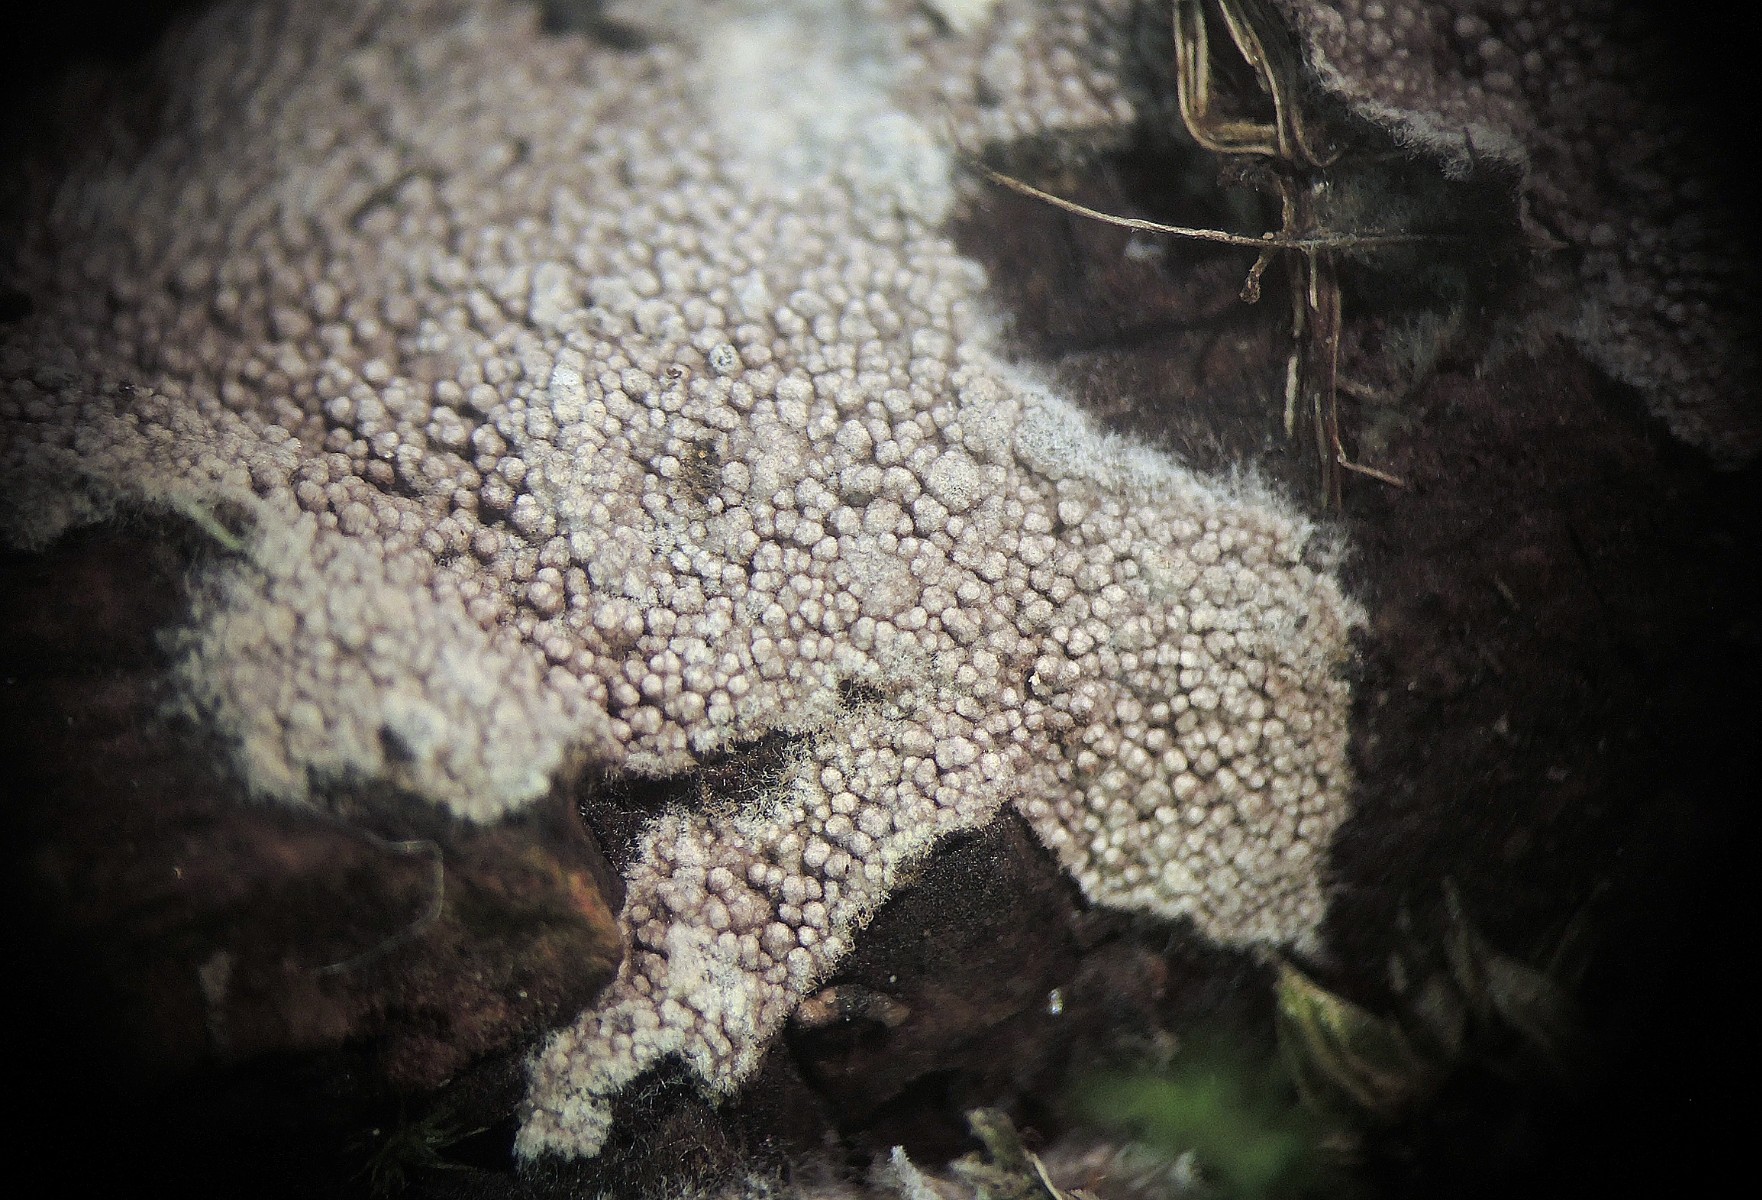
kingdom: Fungi
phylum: Basidiomycota
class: Agaricomycetes
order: Thelephorales
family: Thelephoraceae
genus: Tomentella
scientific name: Tomentella cinerascens
